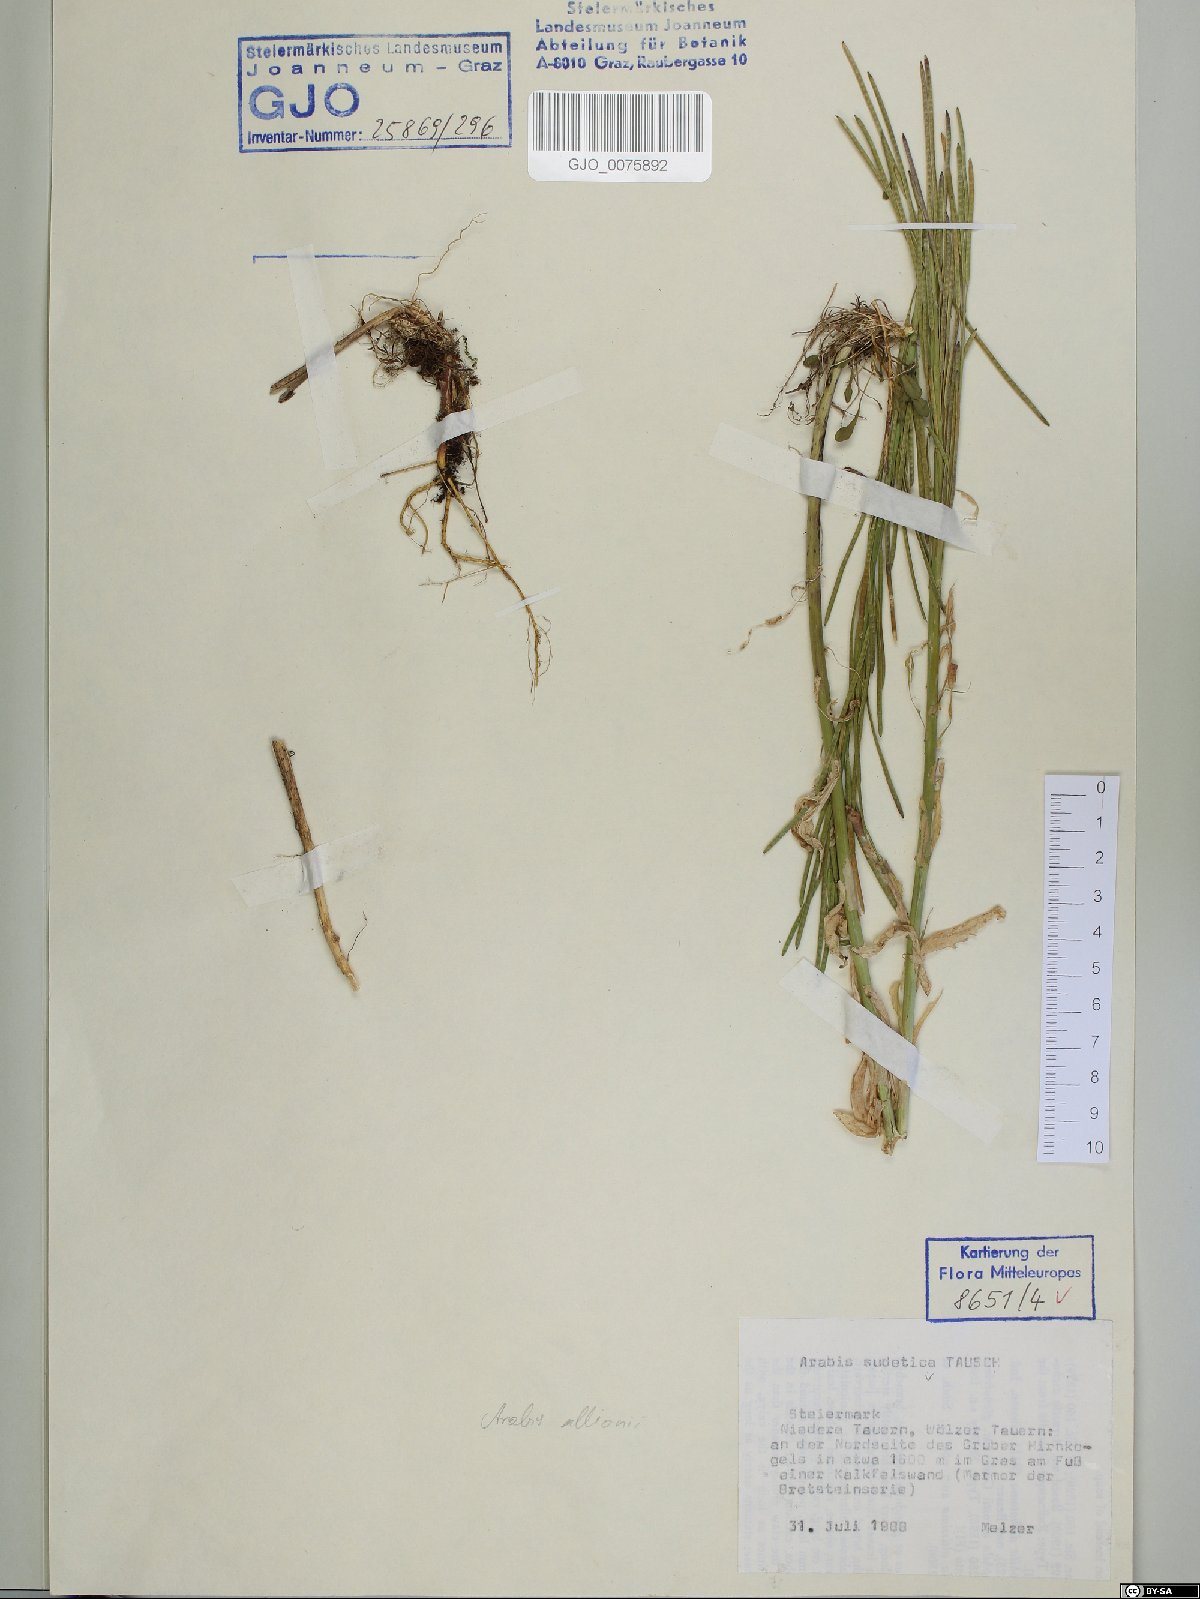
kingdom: Plantae
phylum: Tracheophyta
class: Magnoliopsida
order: Brassicales
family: Brassicaceae
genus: Arabis
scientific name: Arabis sudetica
